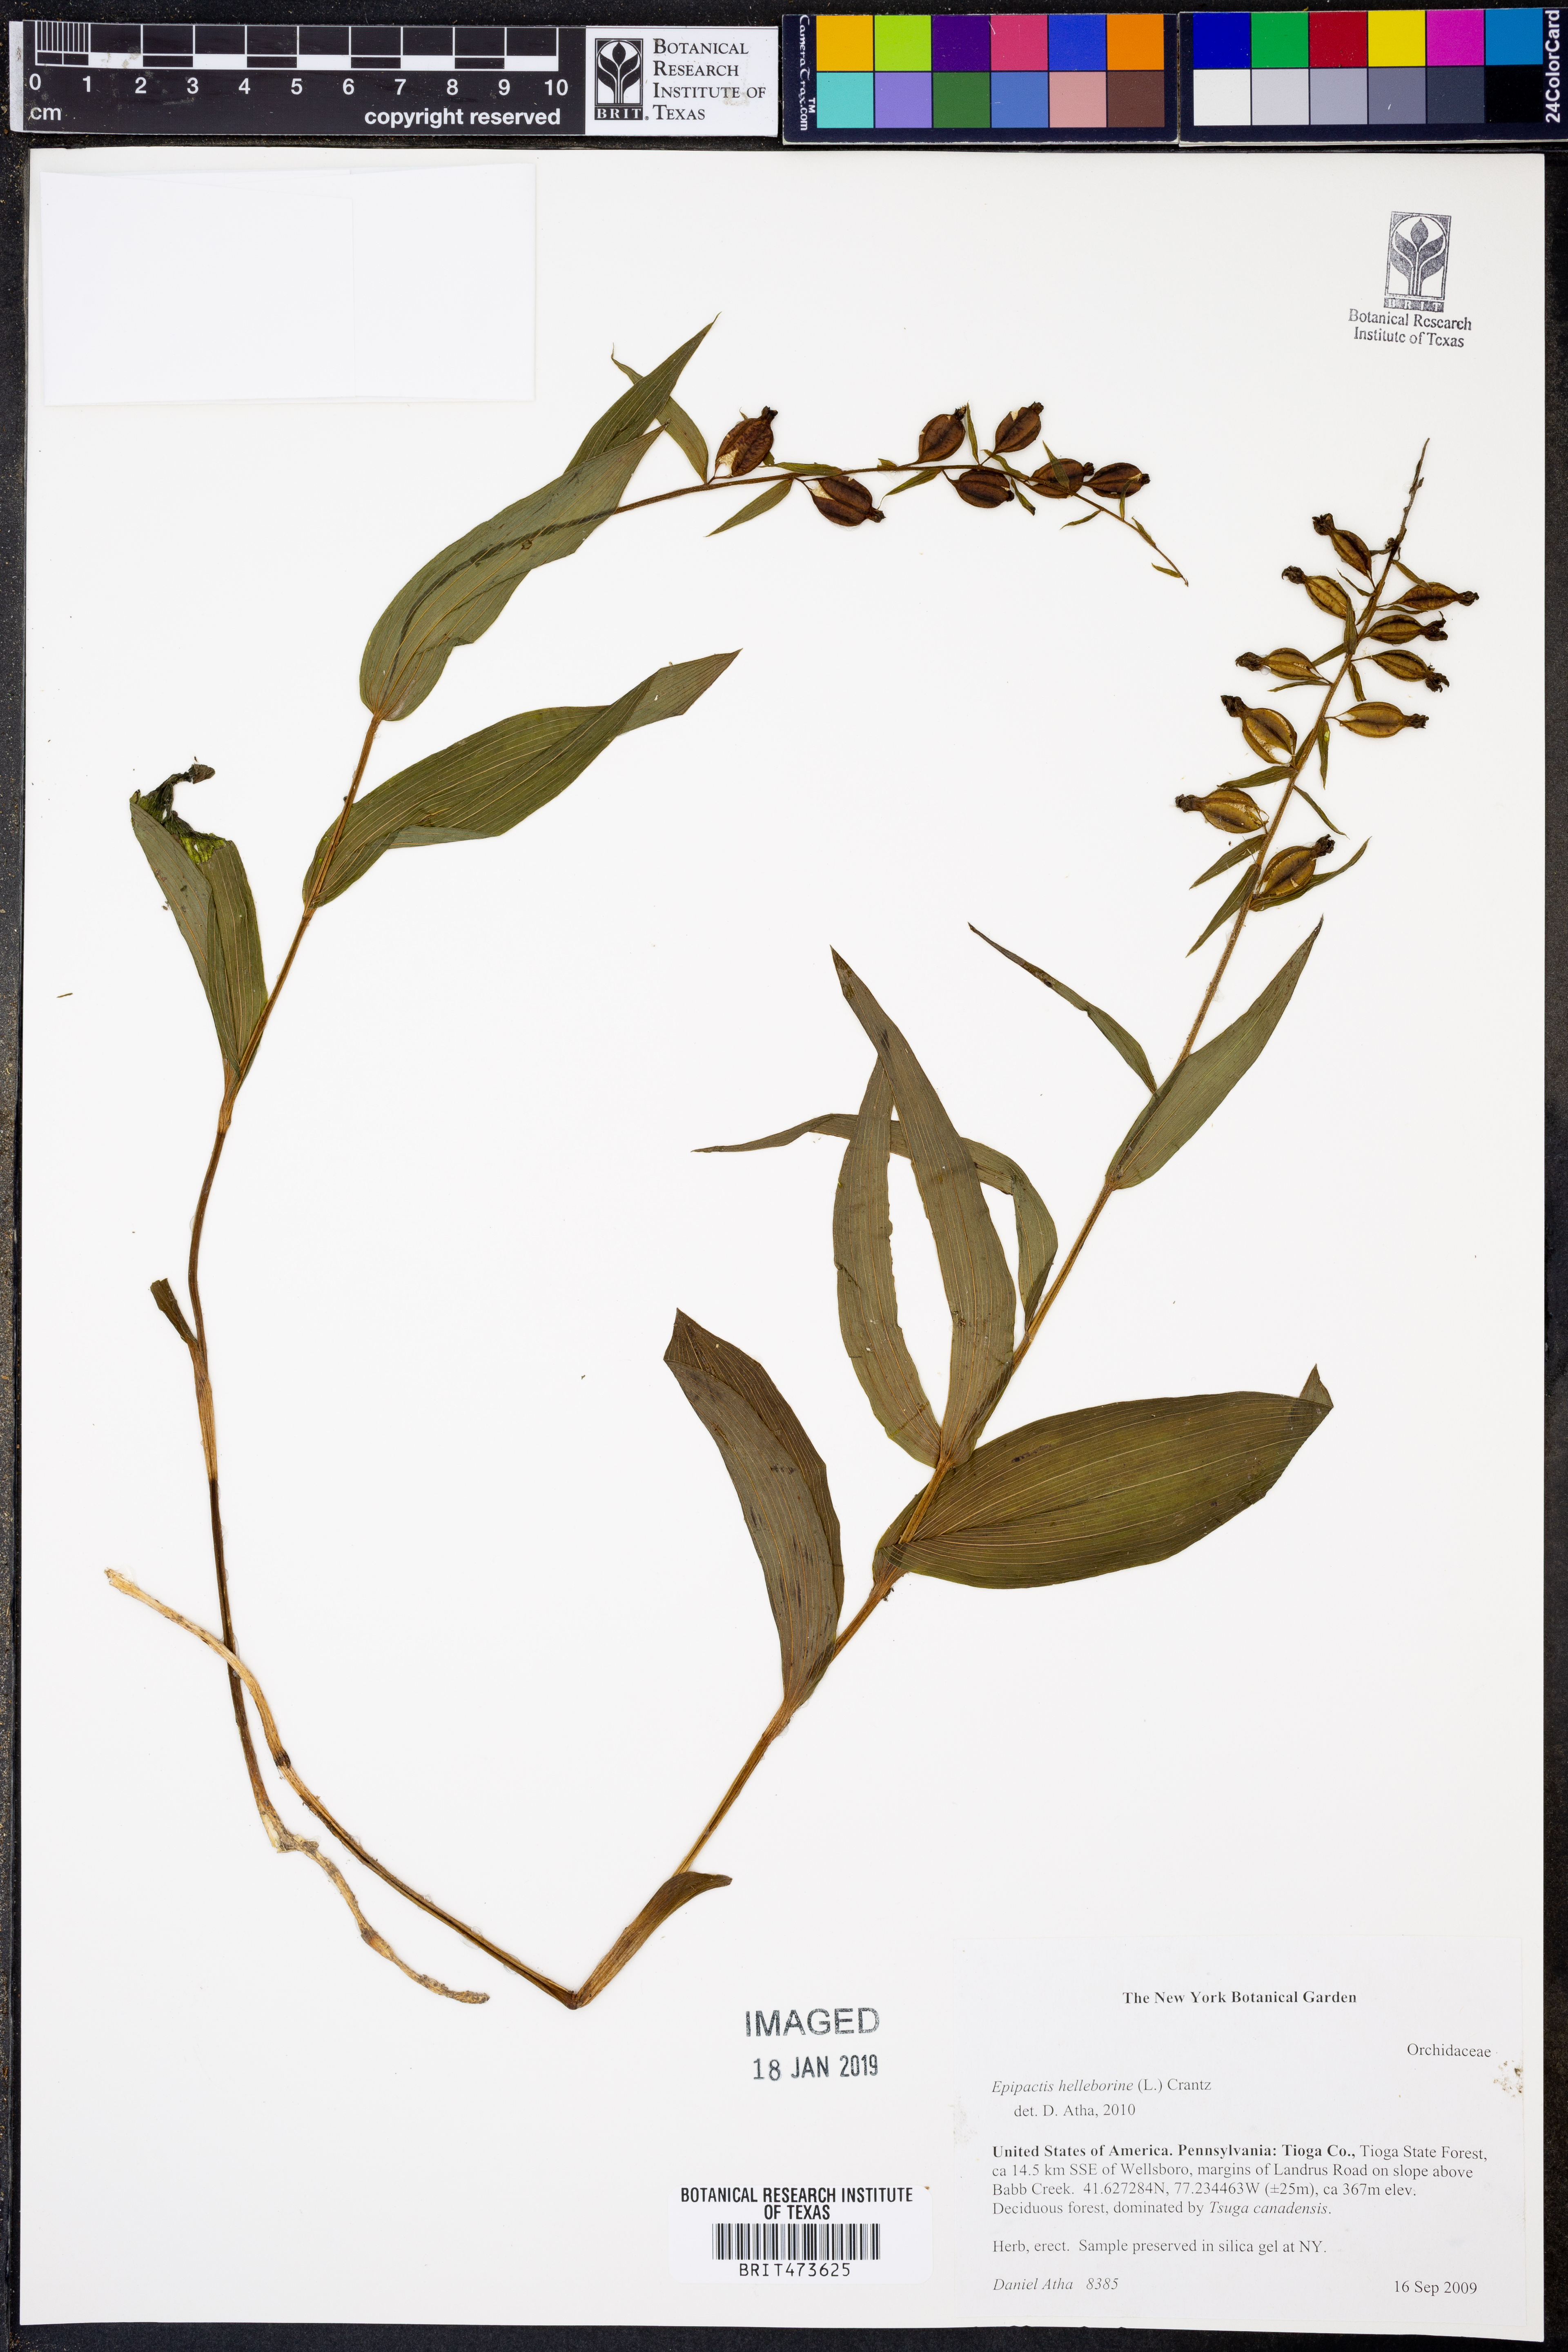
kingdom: Plantae
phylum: Tracheophyta
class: Liliopsida
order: Asparagales
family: Orchidaceae
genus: Epipactis
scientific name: Epipactis helleborine
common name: Broad-leaved helleborine
